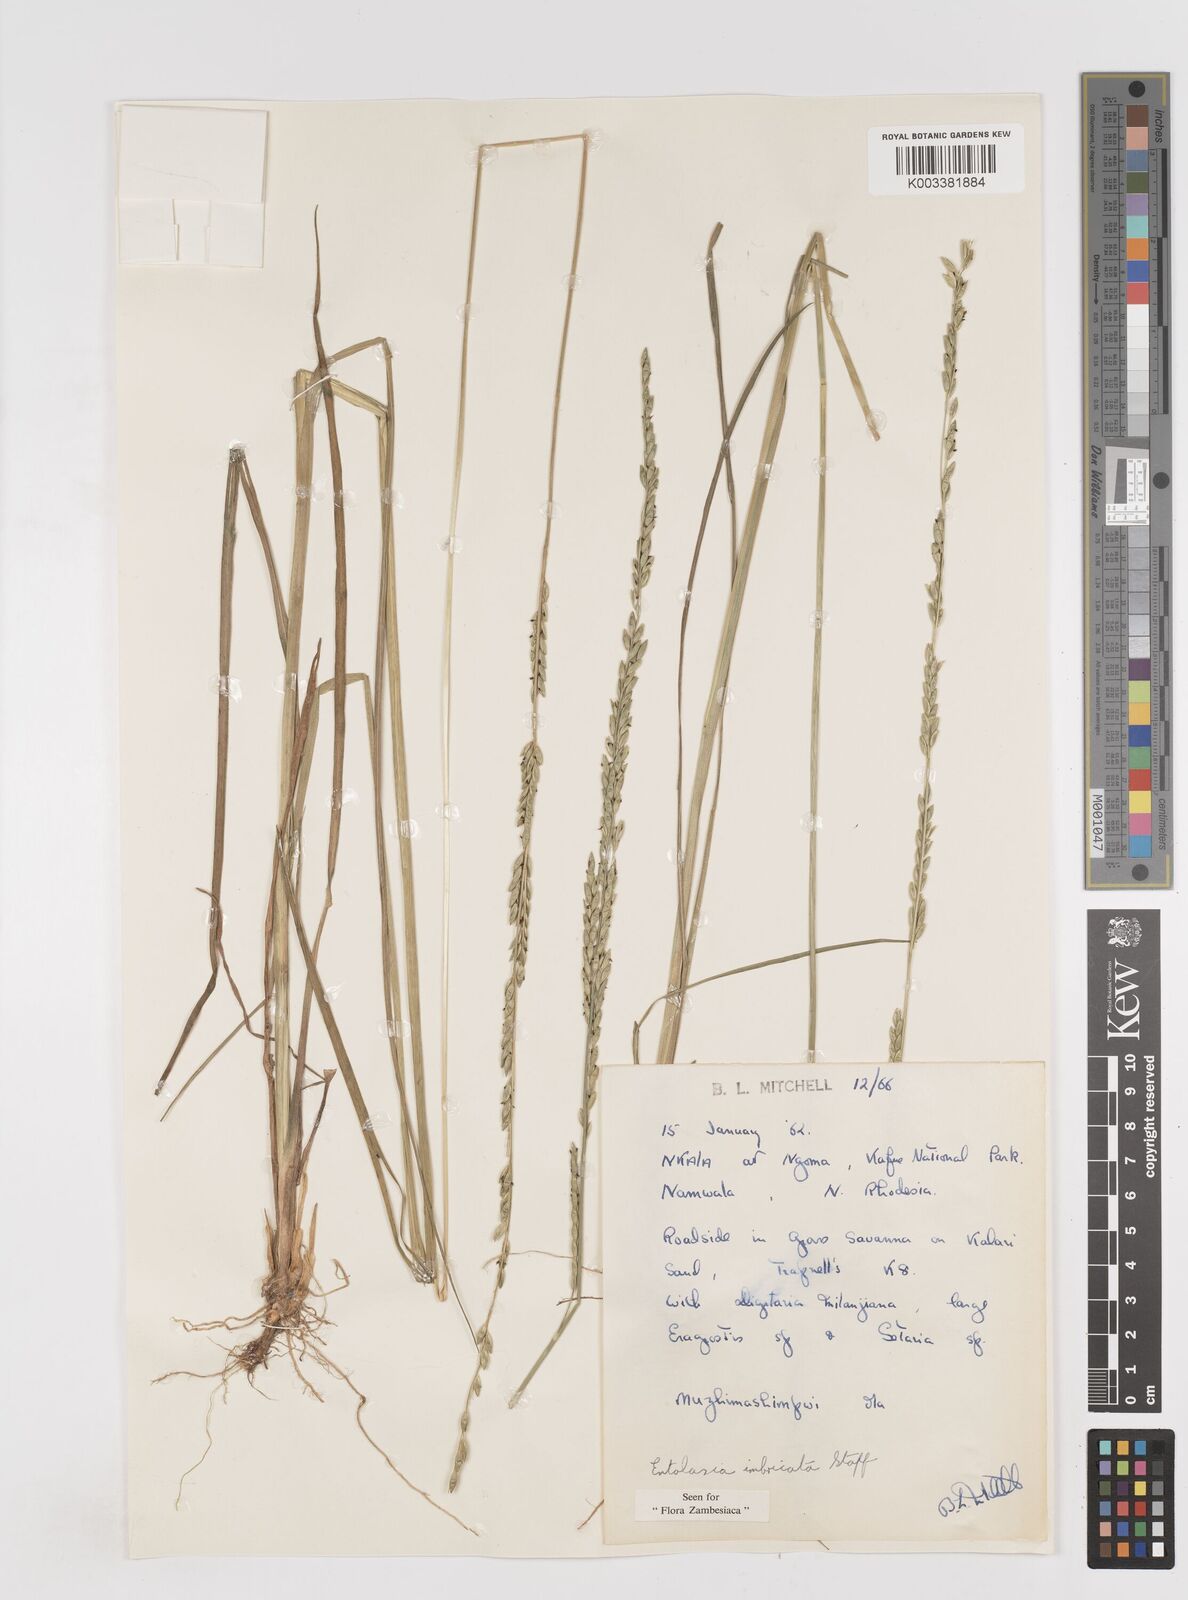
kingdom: Plantae
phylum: Tracheophyta
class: Liliopsida
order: Poales
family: Poaceae
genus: Entolasia
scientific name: Entolasia imbricata
